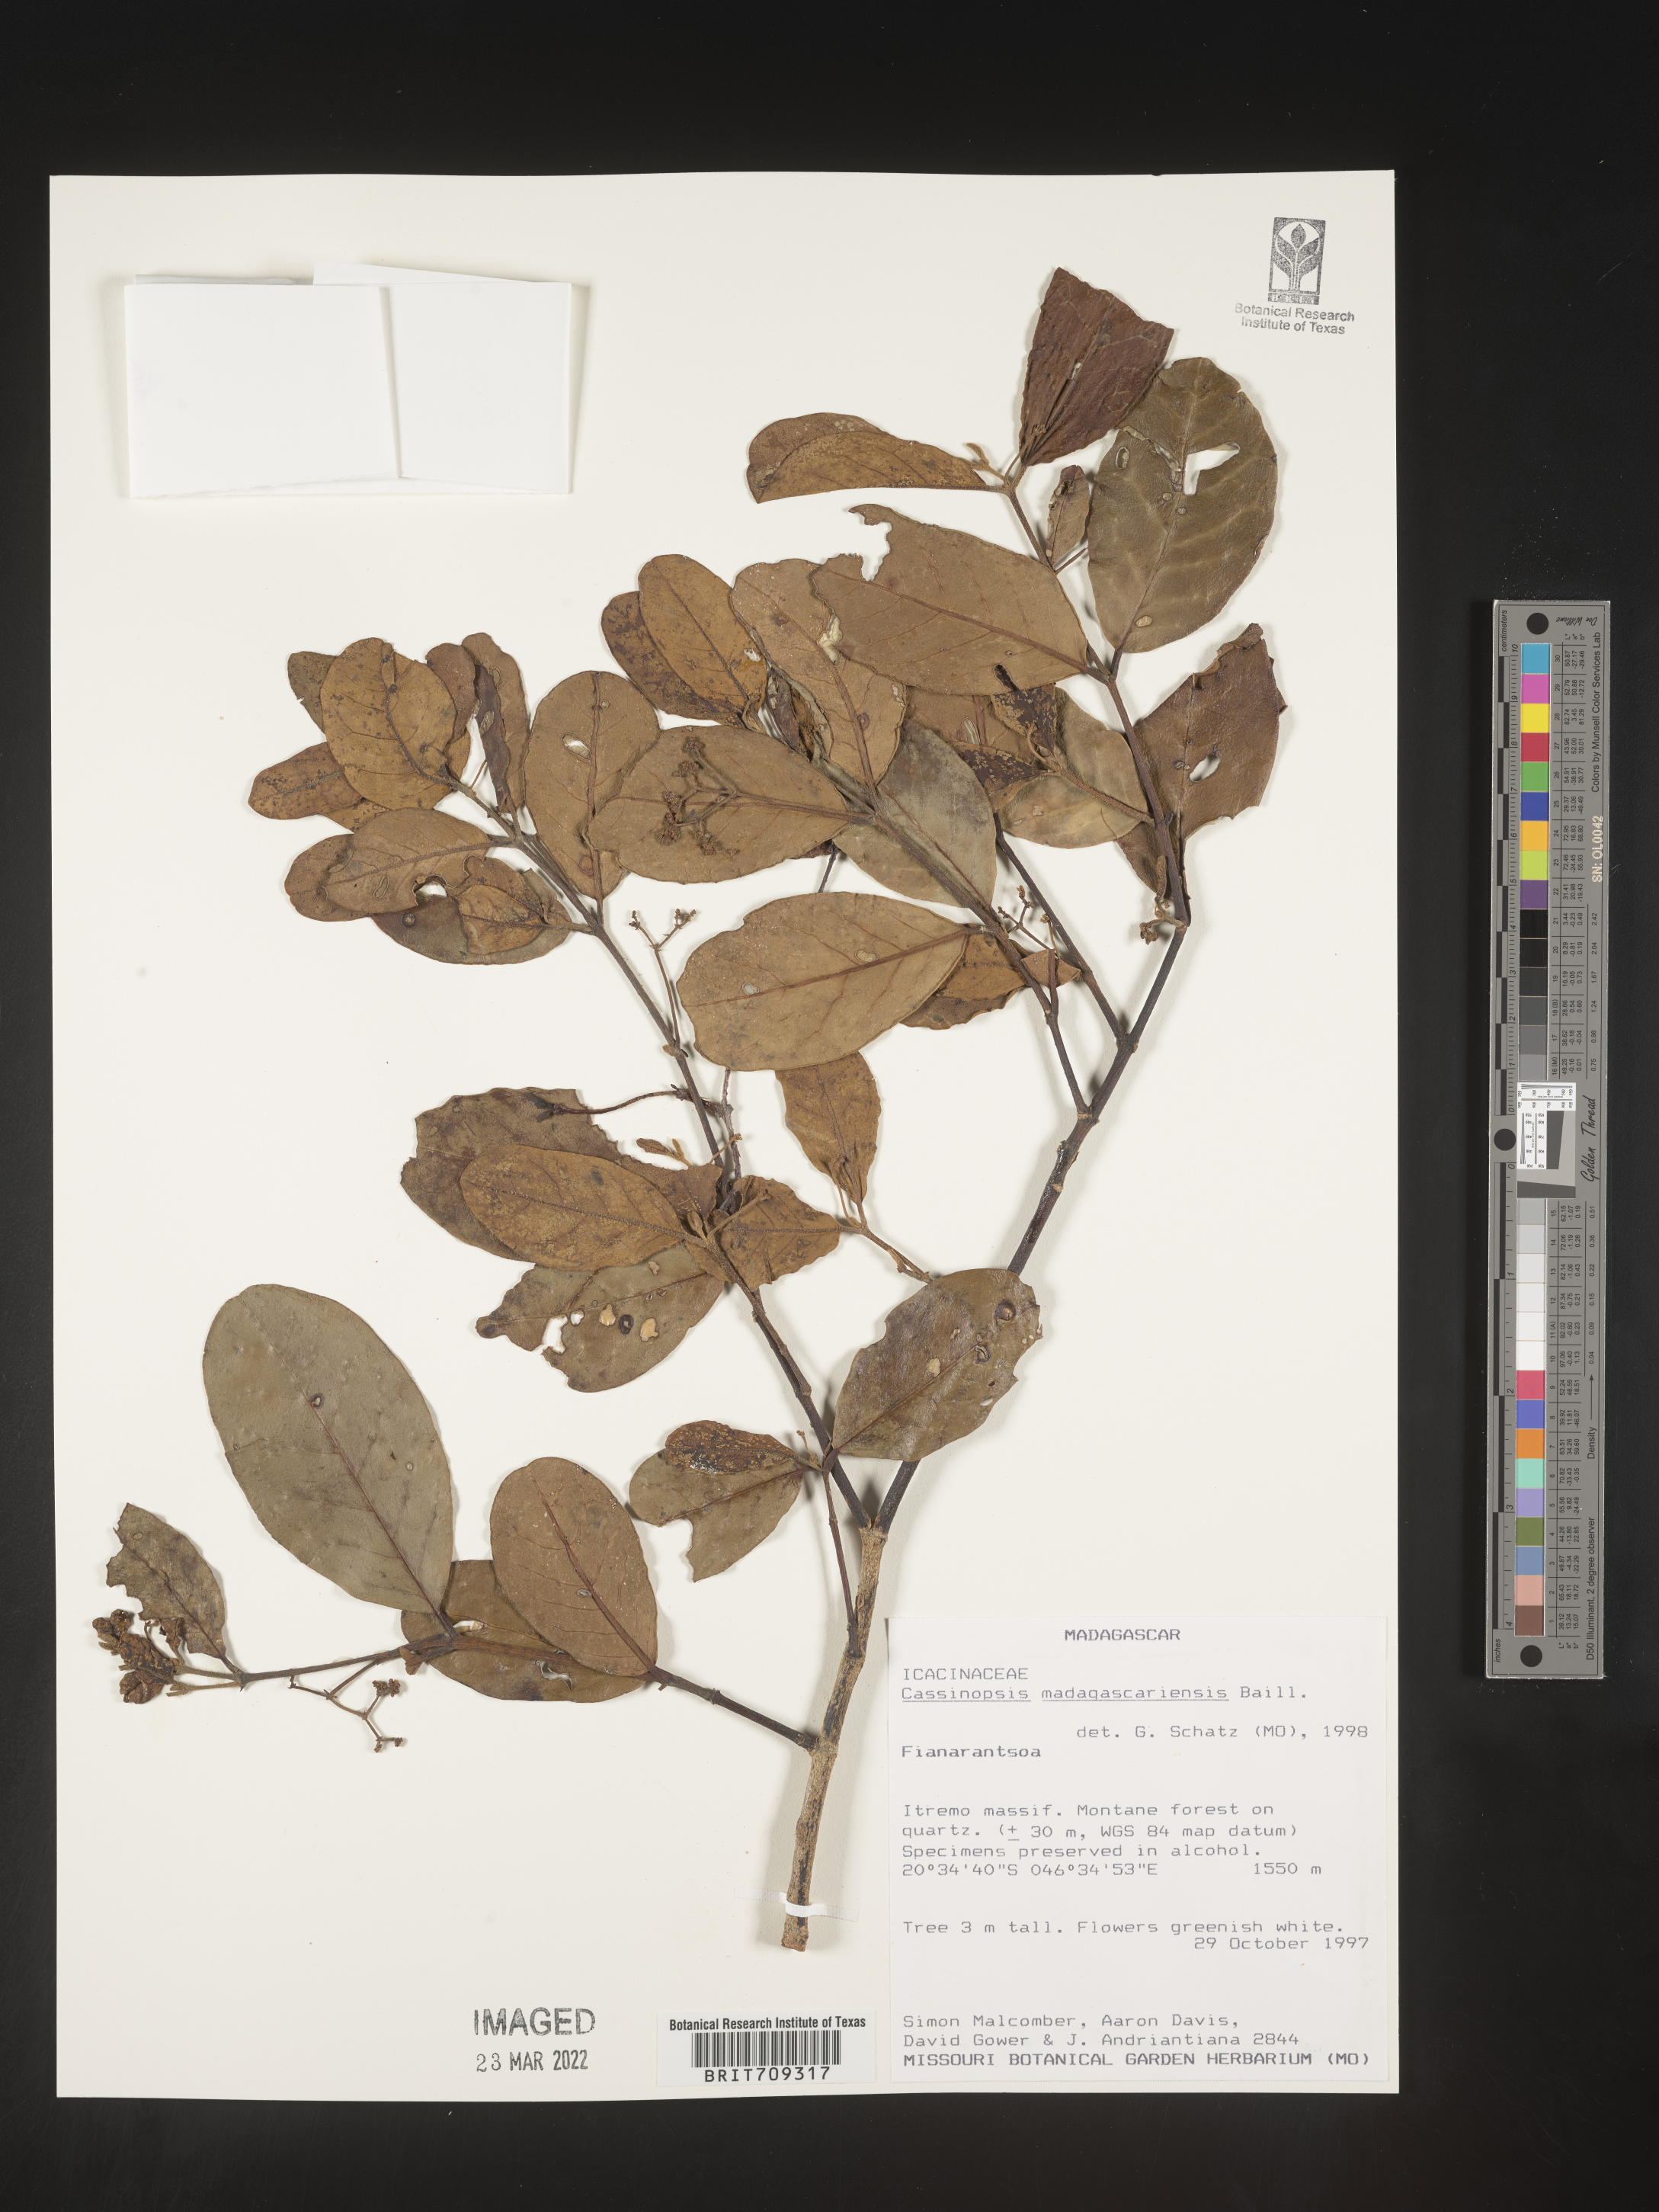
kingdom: Plantae
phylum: Tracheophyta
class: Magnoliopsida
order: Icacinales
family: Icacinaceae
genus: Cassinopsis
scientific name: Cassinopsis
